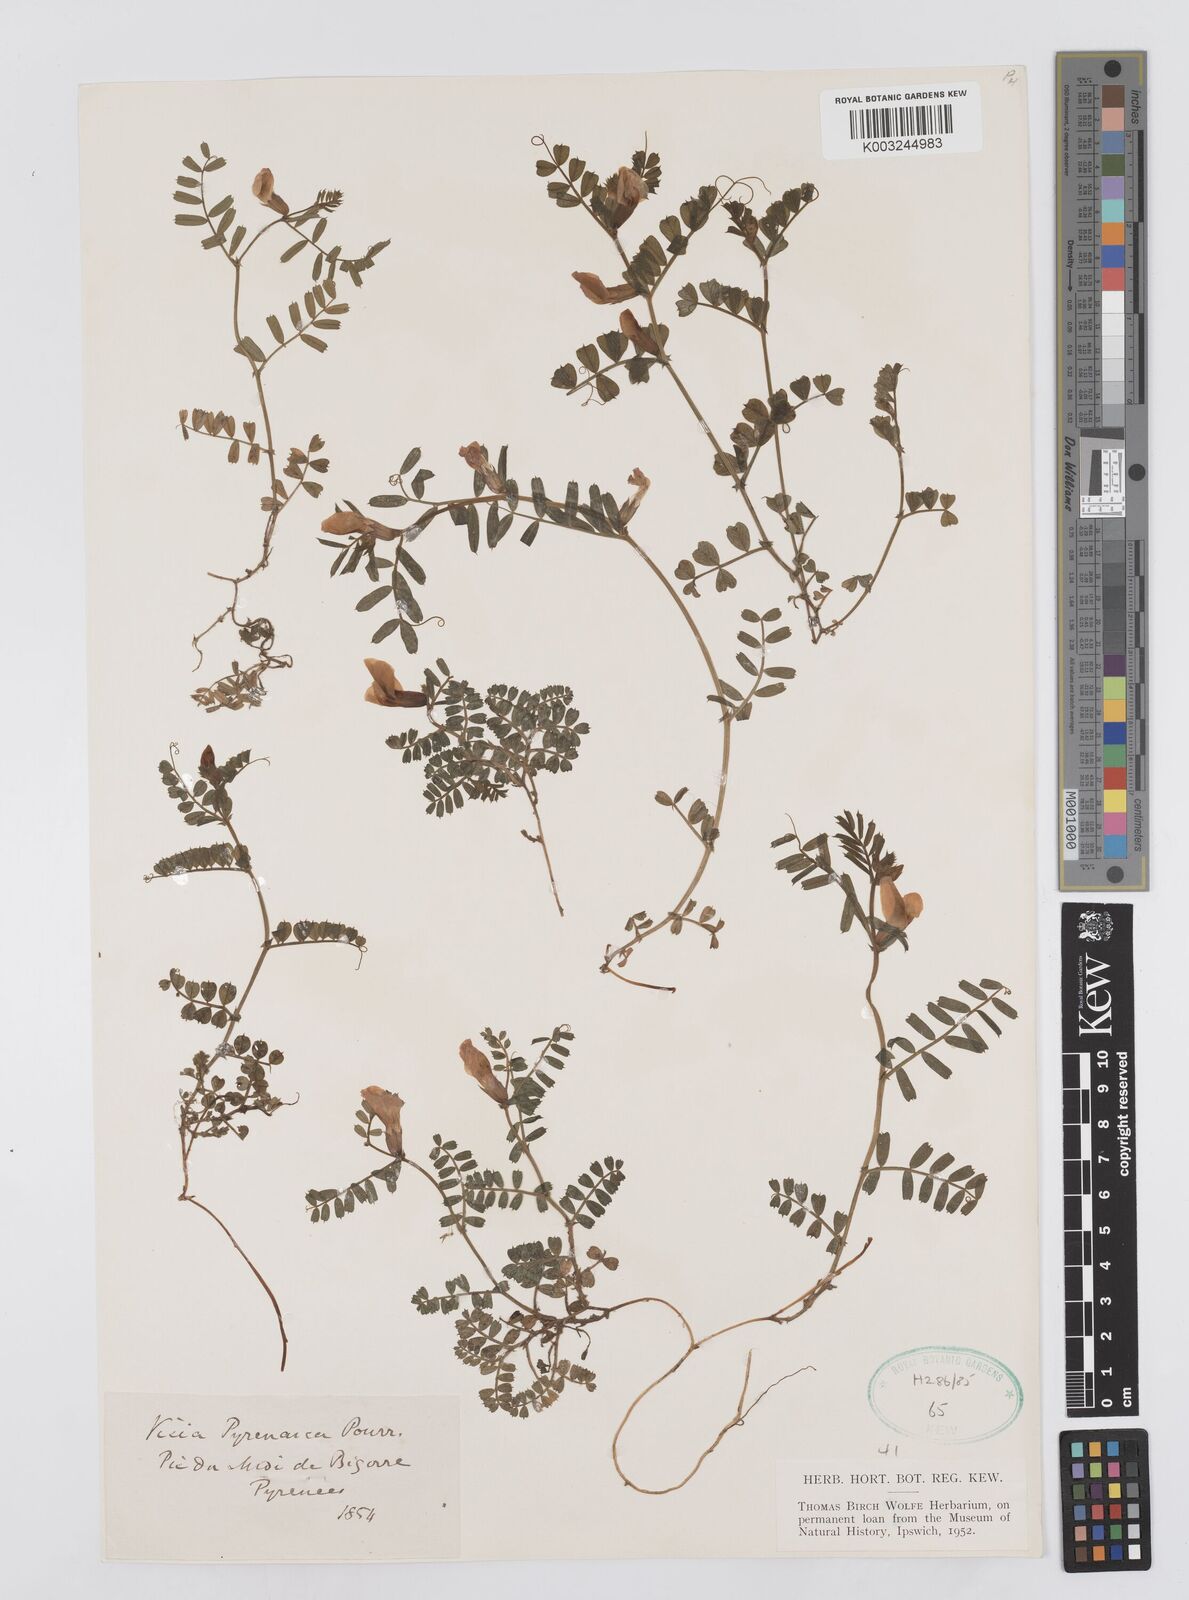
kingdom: Plantae
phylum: Tracheophyta
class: Magnoliopsida
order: Fabales
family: Fabaceae
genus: Vicia
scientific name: Vicia pyrenaica
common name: Pyrenean vetch
